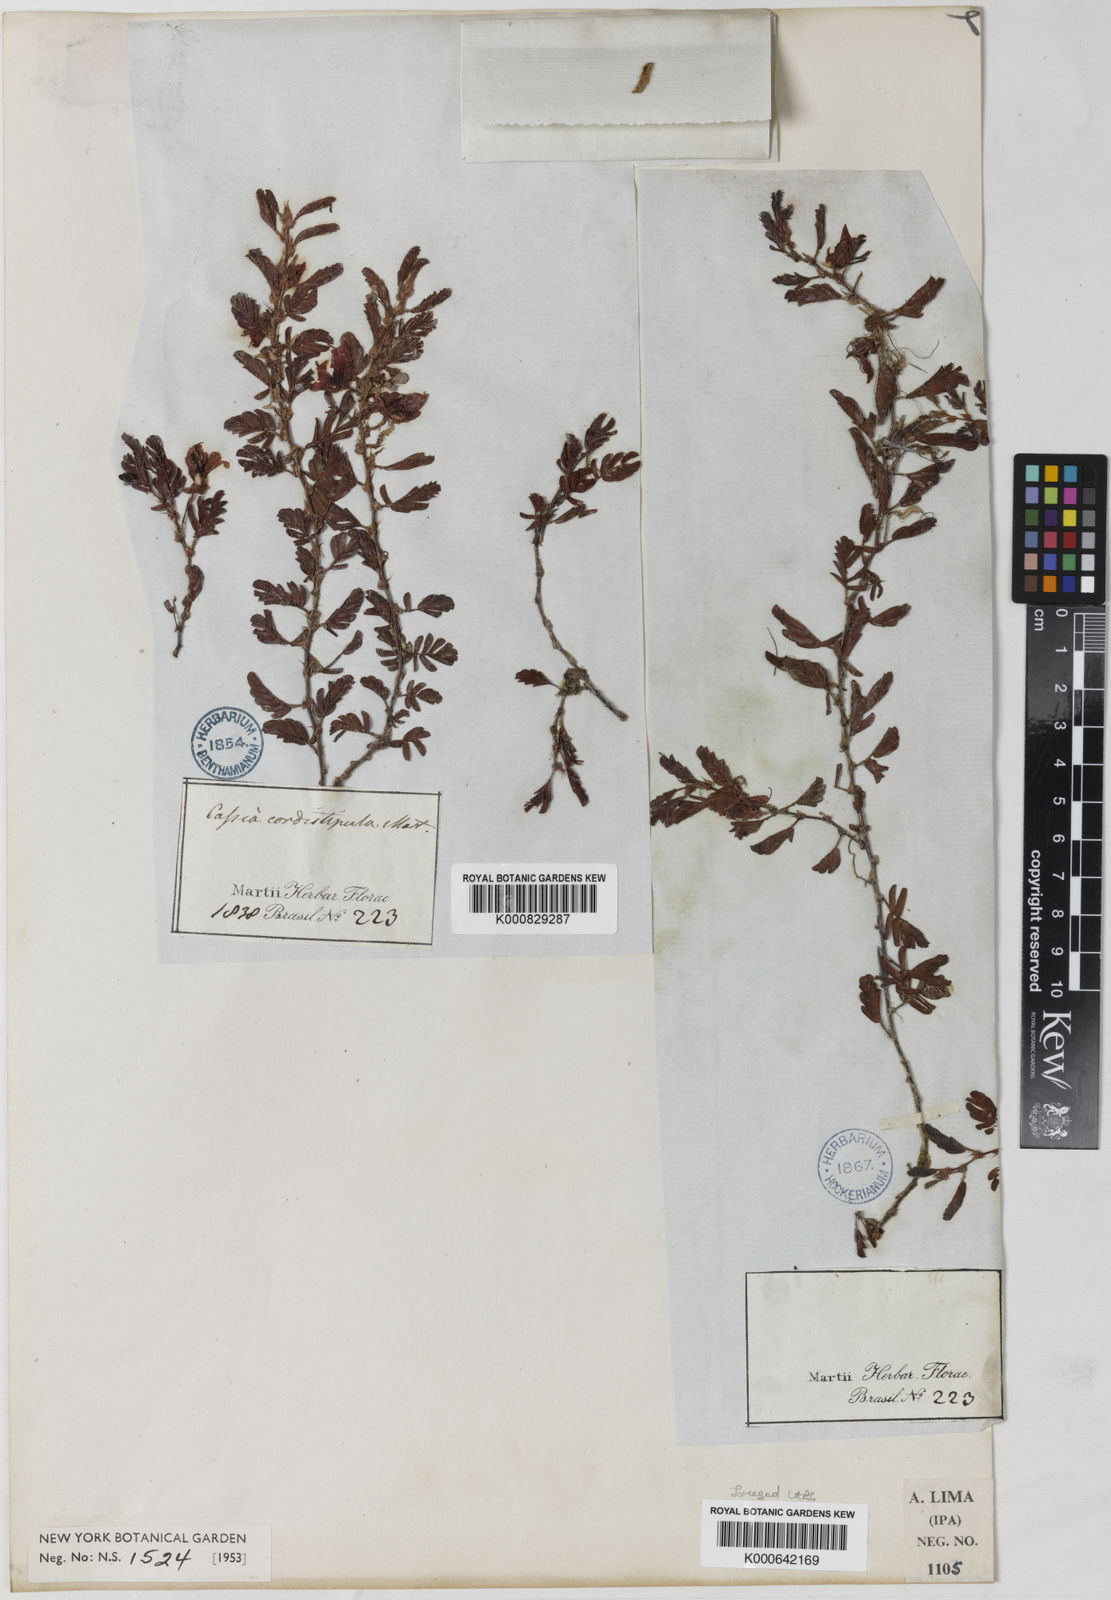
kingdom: Plantae
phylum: Tracheophyta
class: Magnoliopsida
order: Fabales
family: Fabaceae
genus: Chamaecrista
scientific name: Chamaecrista cordistipula
